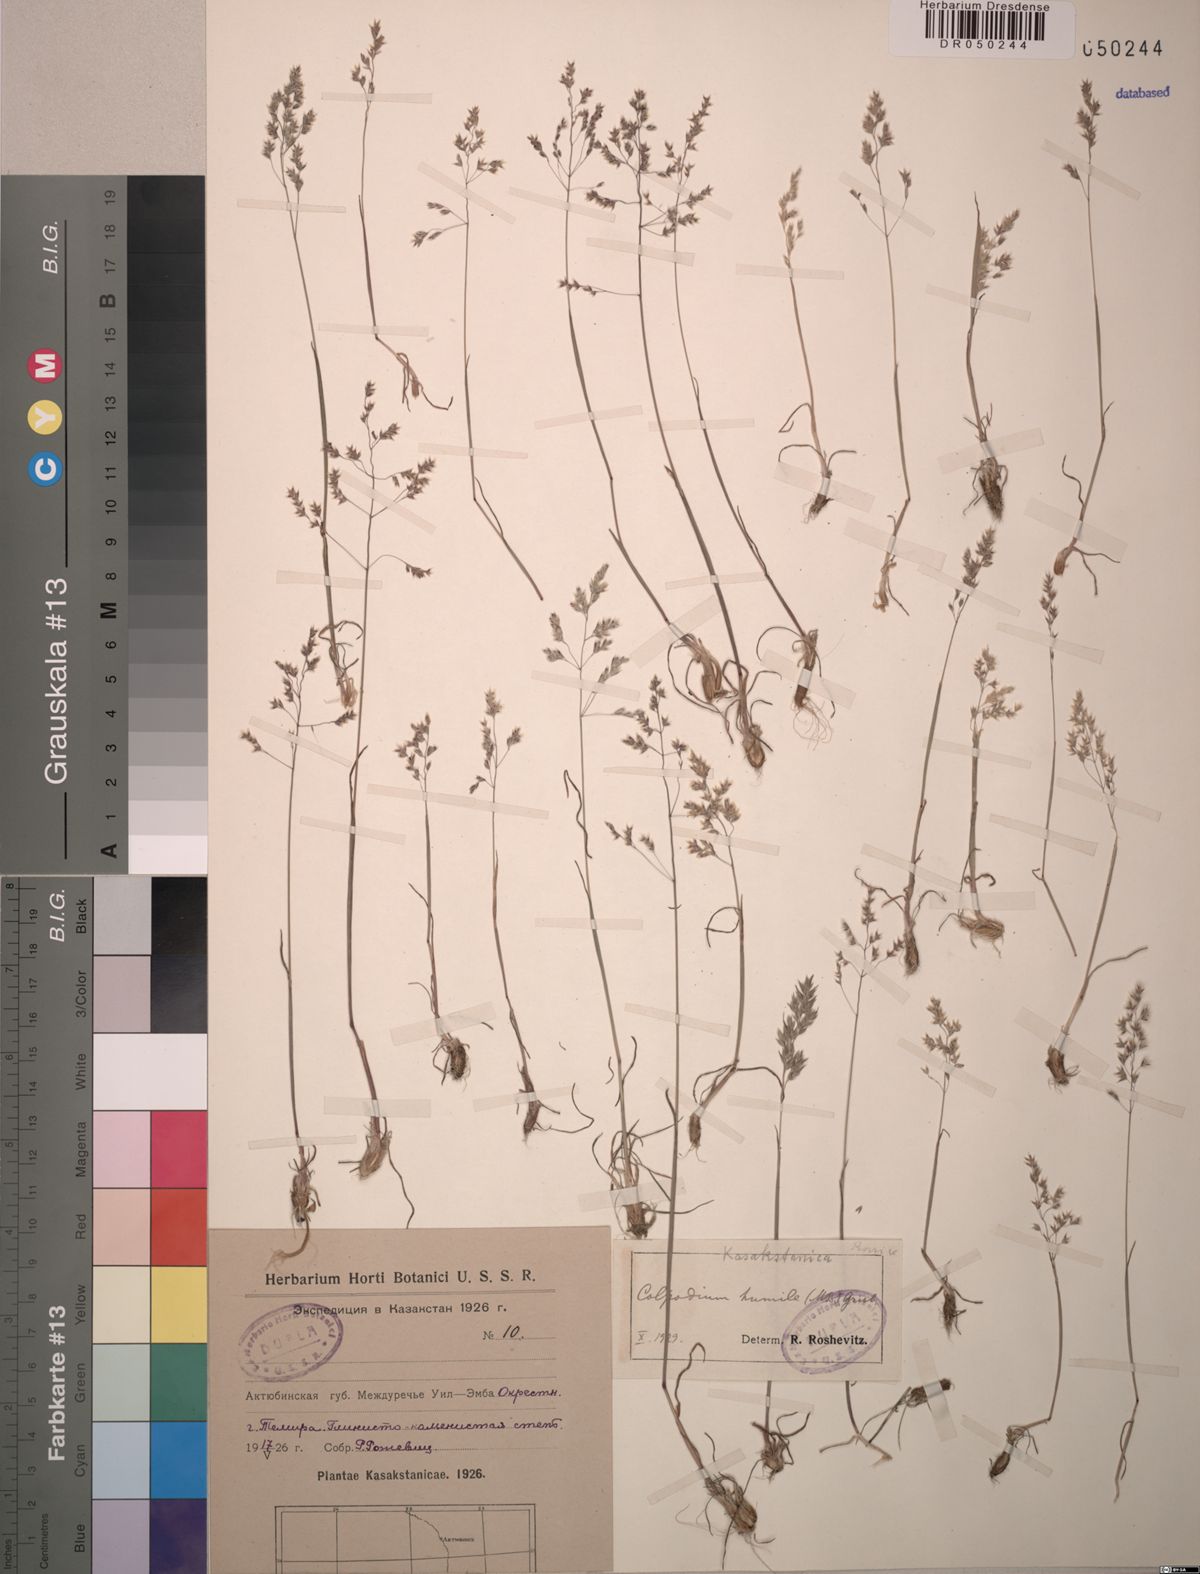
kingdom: Plantae
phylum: Tracheophyta
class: Liliopsida
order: Poales
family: Poaceae
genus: Catabrosella
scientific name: Catabrosella humilis
